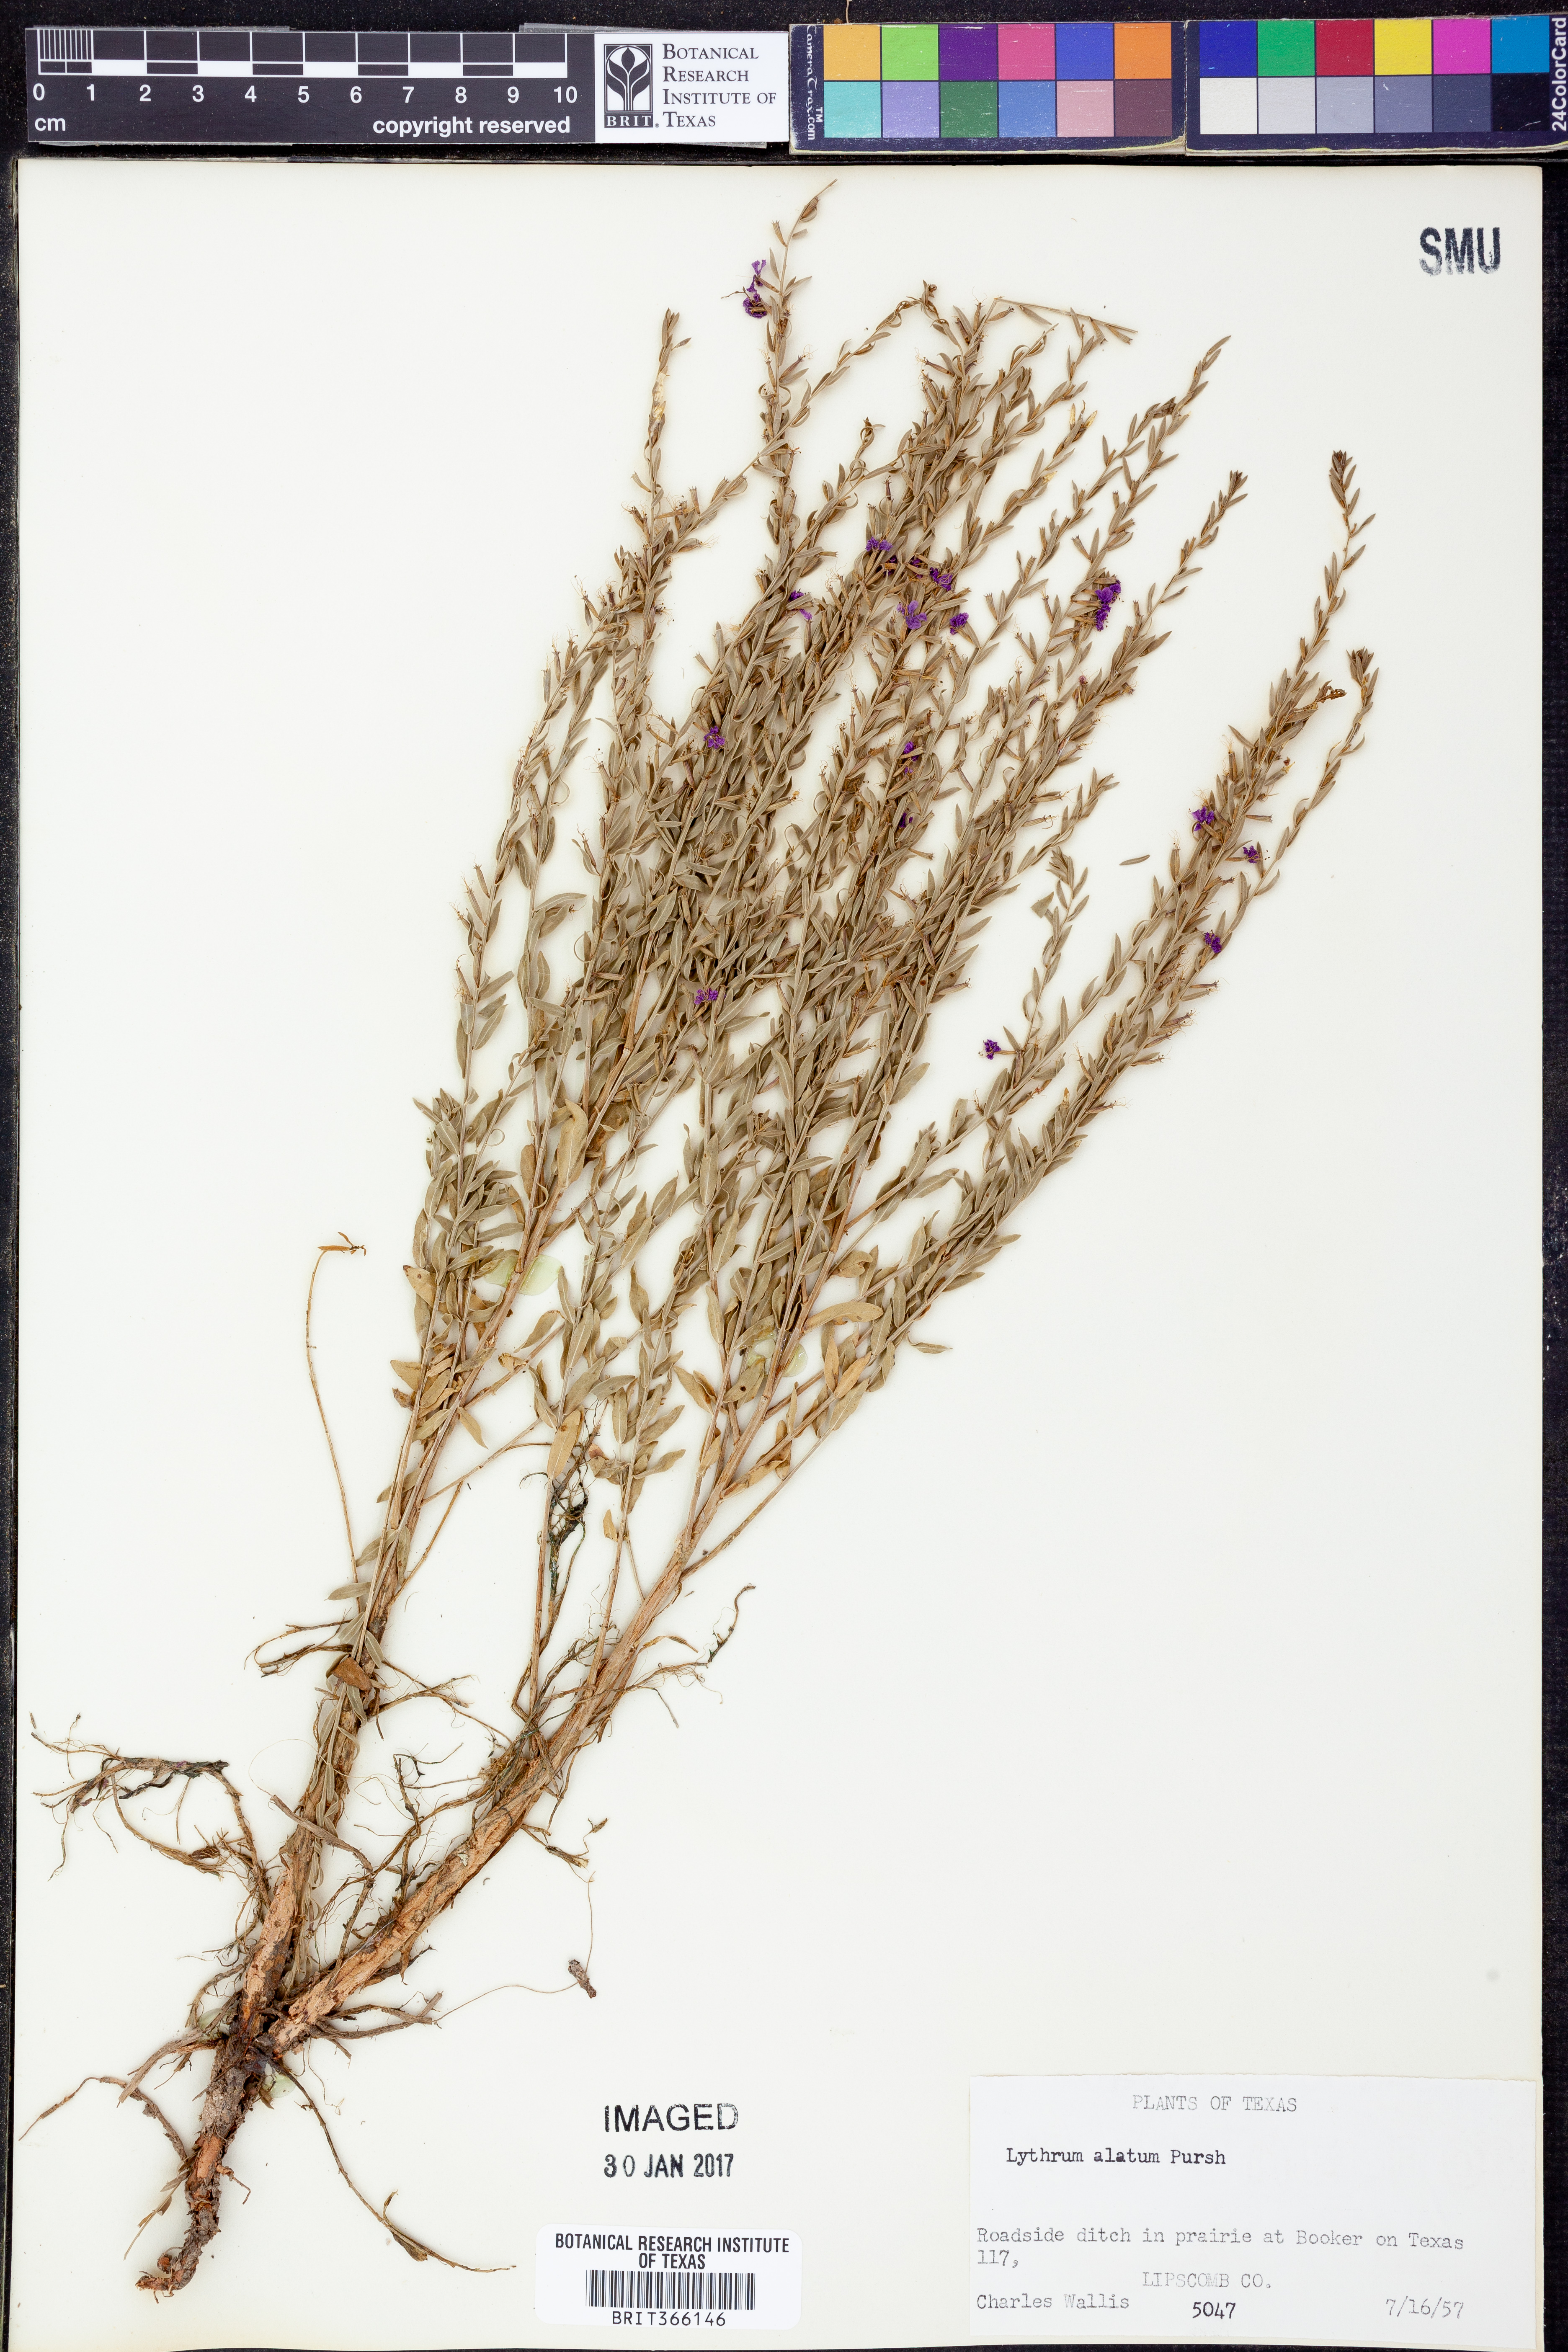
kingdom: Plantae
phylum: Tracheophyta
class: Magnoliopsida
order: Myrtales
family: Lythraceae
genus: Lythrum
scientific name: Lythrum alatum
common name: Winged loosestrife
